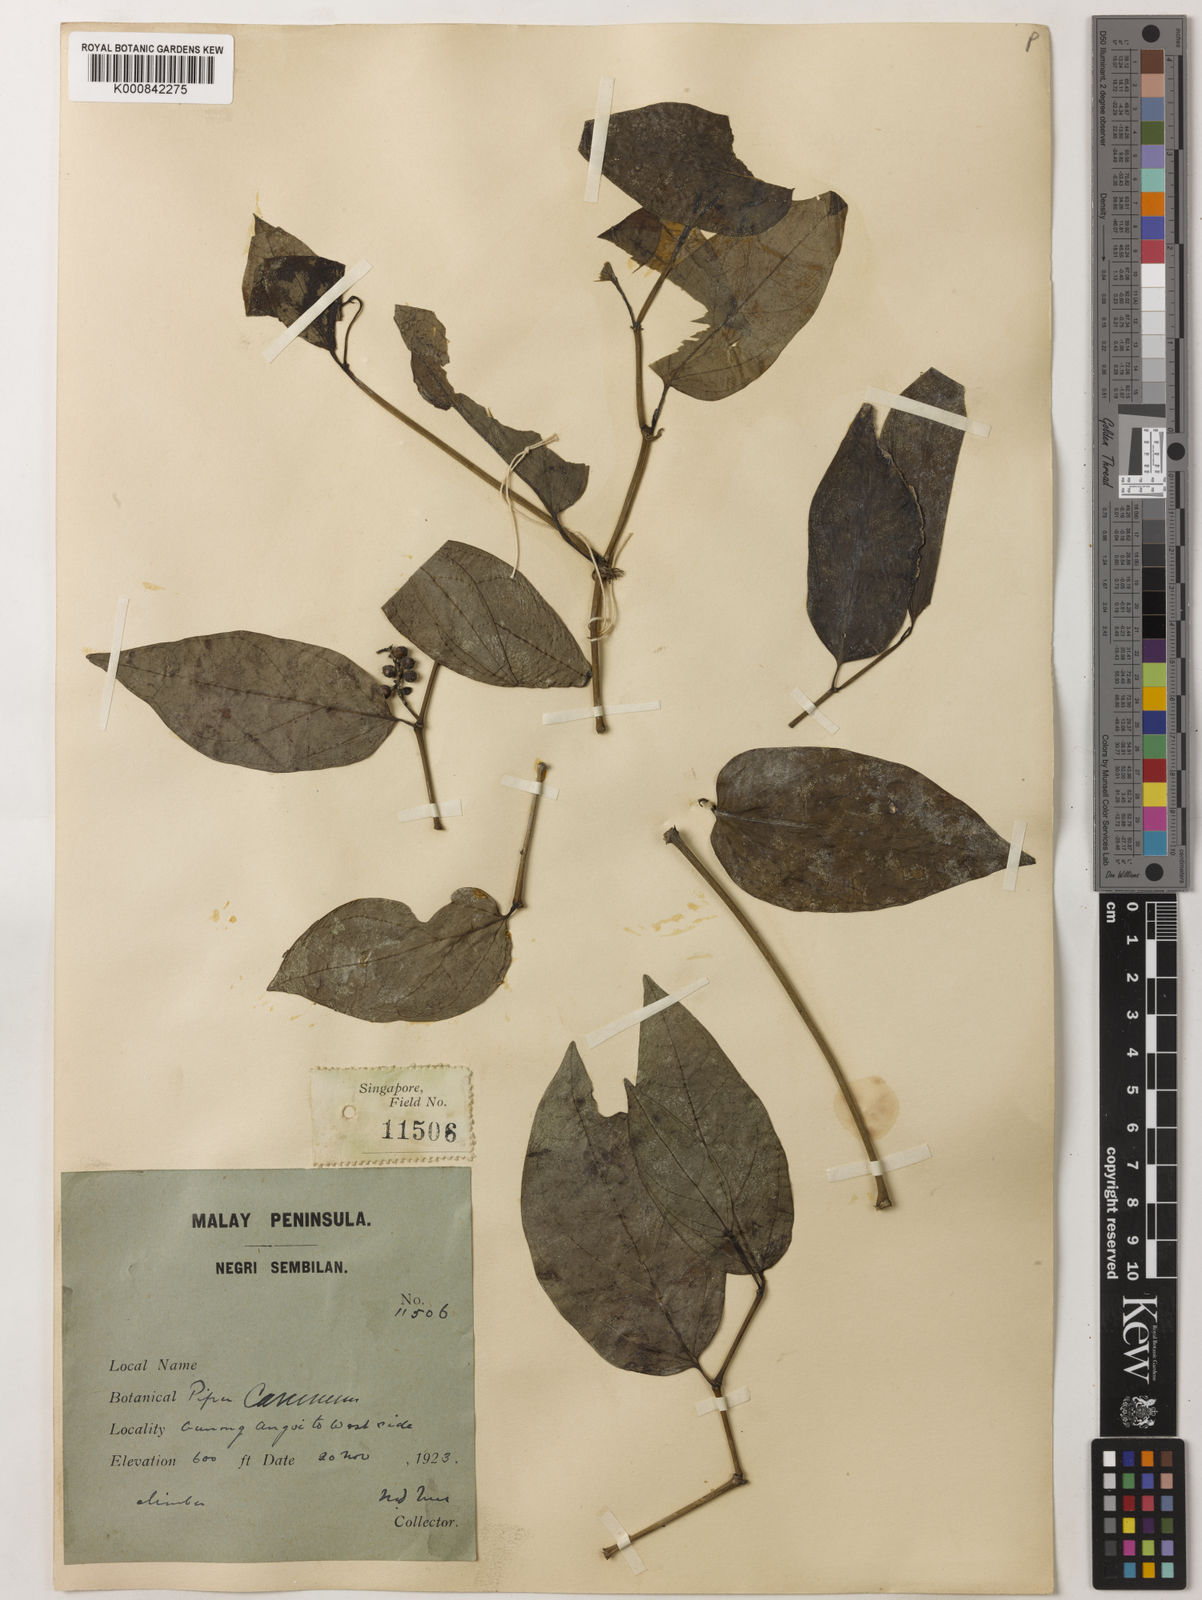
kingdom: Plantae
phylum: Tracheophyta
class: Magnoliopsida
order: Piperales
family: Piperaceae
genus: Piper
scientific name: Piper lanatum
